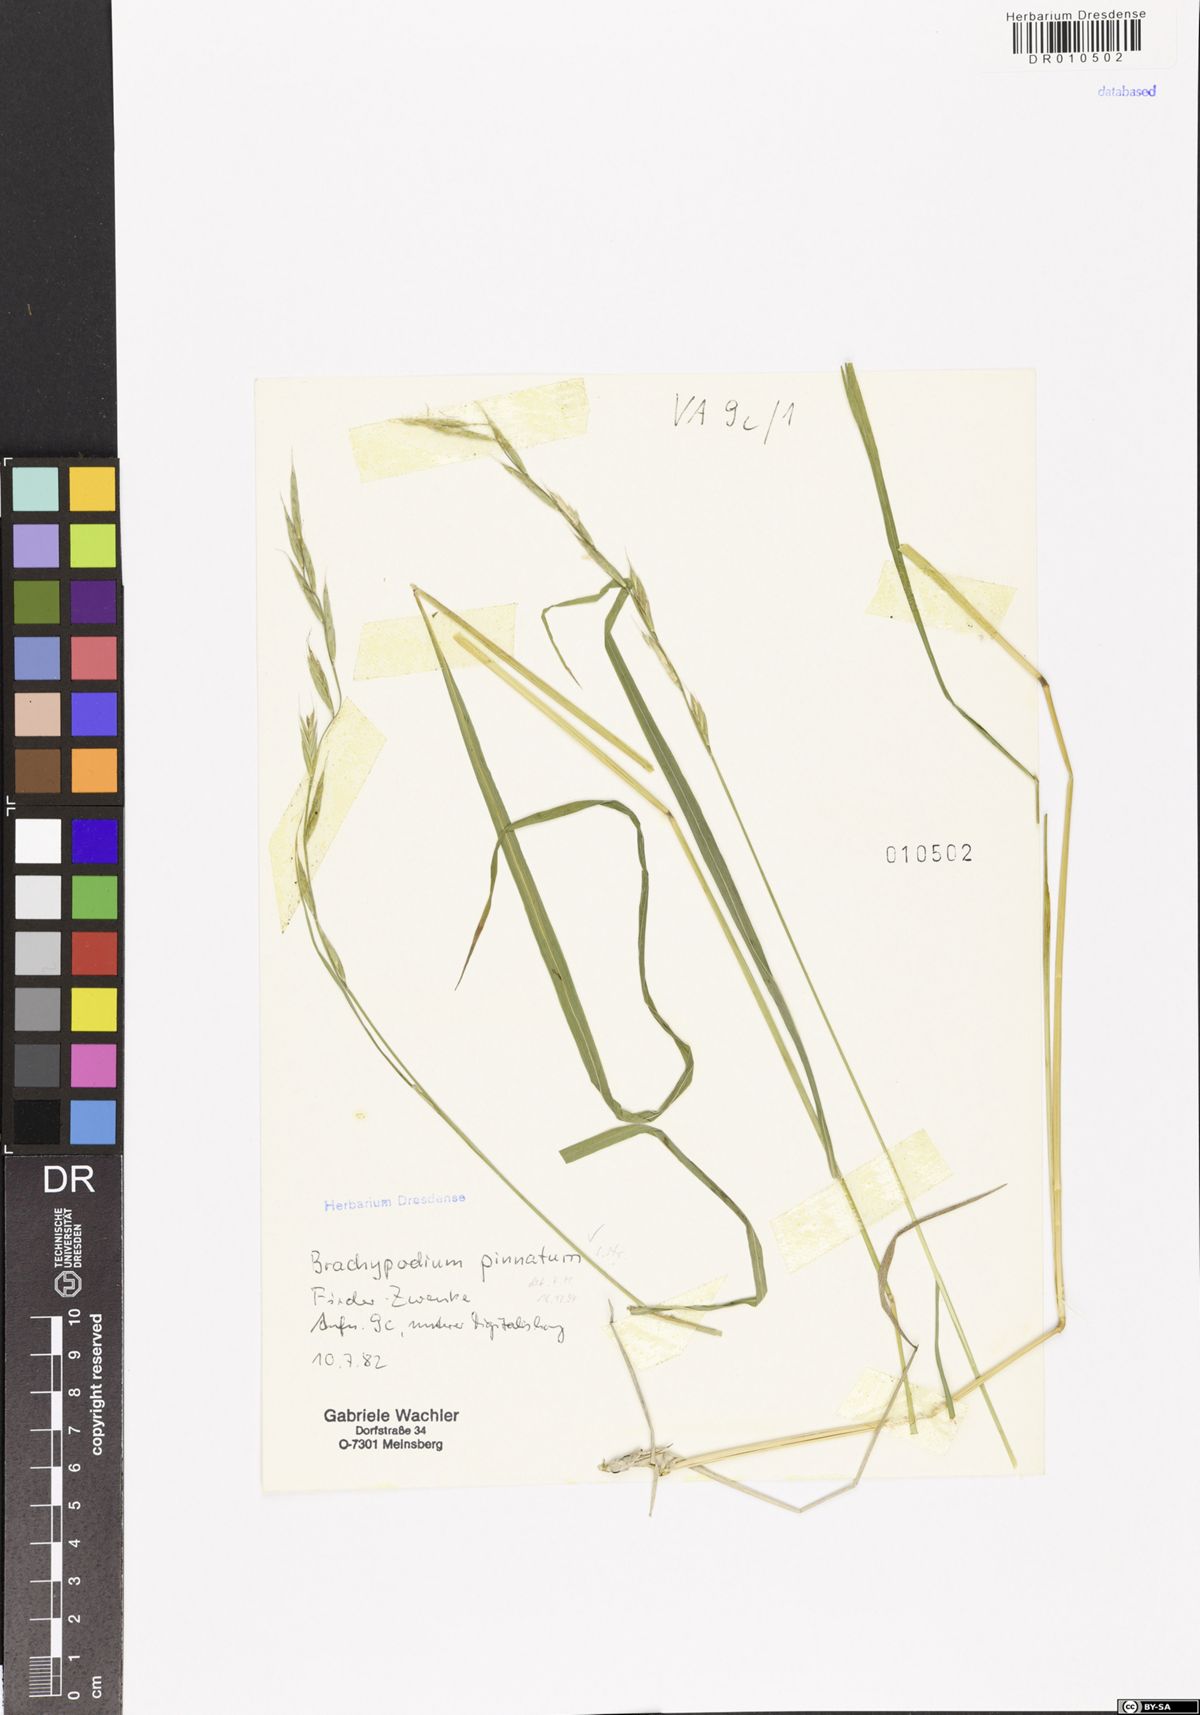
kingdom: Plantae
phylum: Tracheophyta
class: Liliopsida
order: Poales
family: Poaceae
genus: Brachypodium
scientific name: Brachypodium pinnatum
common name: Tor grass
